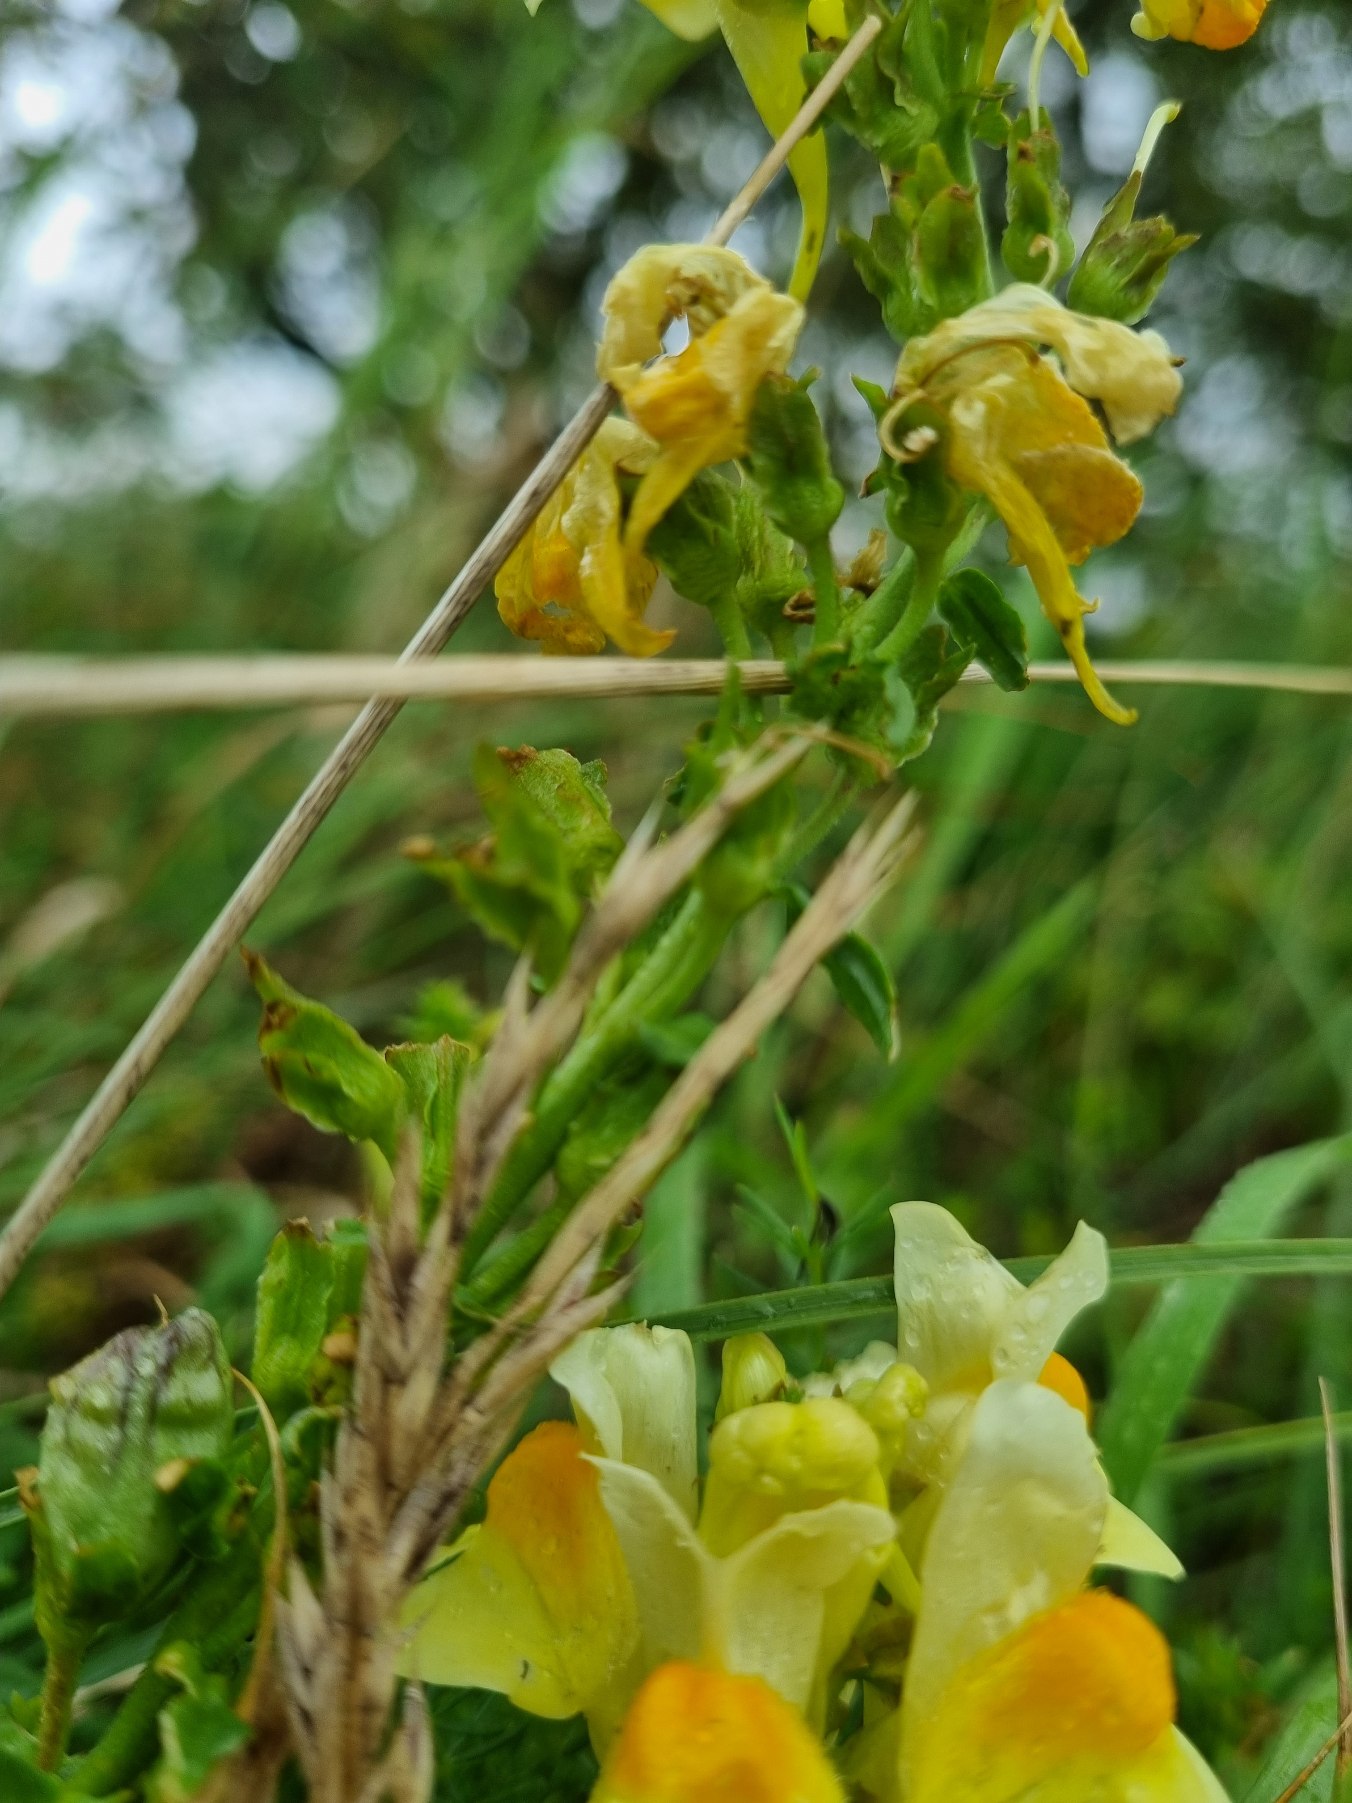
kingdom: Plantae
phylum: Tracheophyta
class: Magnoliopsida
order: Lamiales
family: Plantaginaceae
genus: Linaria
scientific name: Linaria vulgaris
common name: Almindelig torskemund
